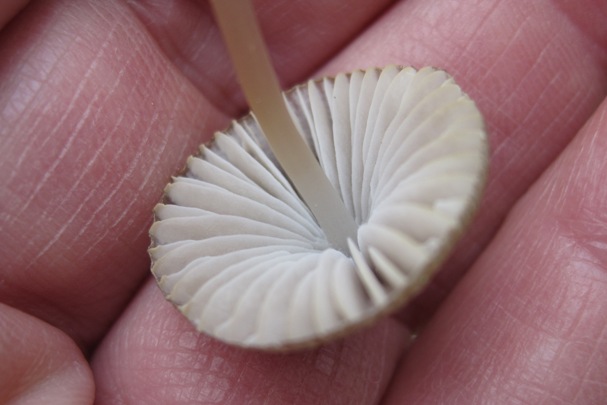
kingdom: Fungi
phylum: Basidiomycota
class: Agaricomycetes
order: Agaricales
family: Mycenaceae
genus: Mycena
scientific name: Mycena abramsii
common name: sommer-huesvamp
